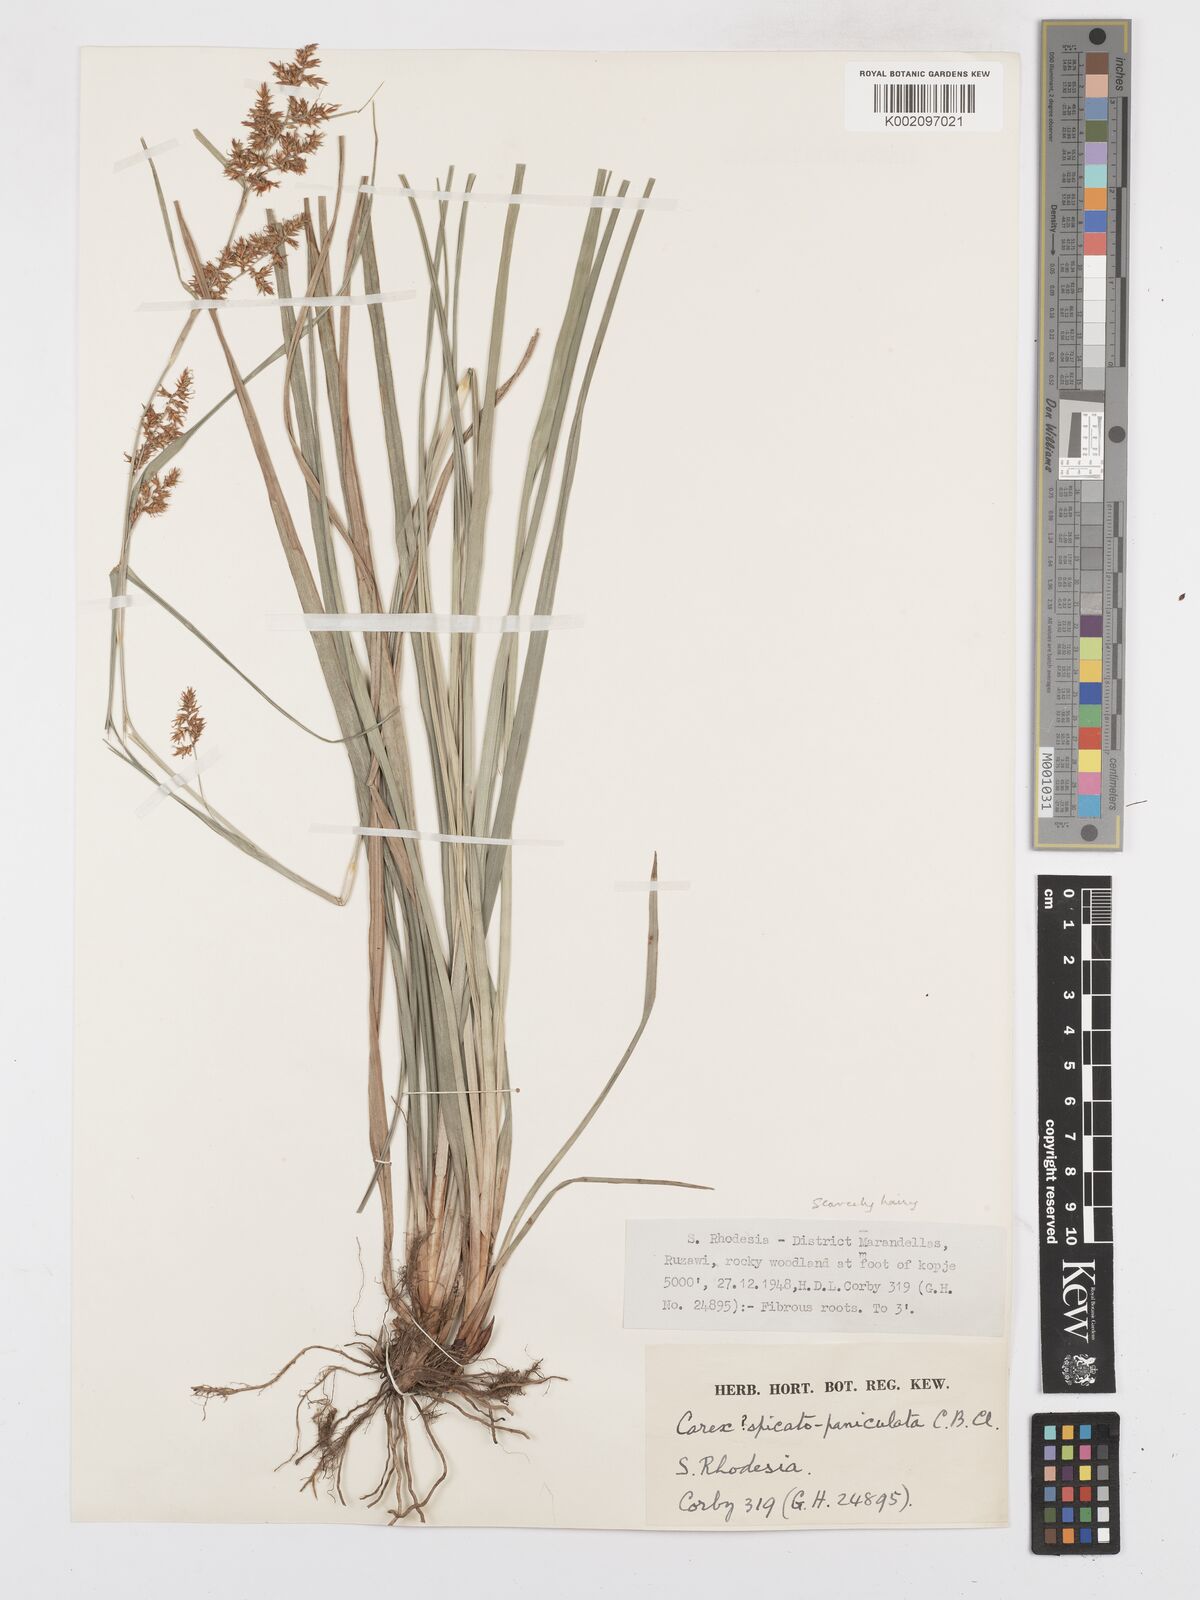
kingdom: Plantae
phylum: Tracheophyta
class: Liliopsida
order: Poales
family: Cyperaceae
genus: Carex
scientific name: Carex spicatopaniculata
